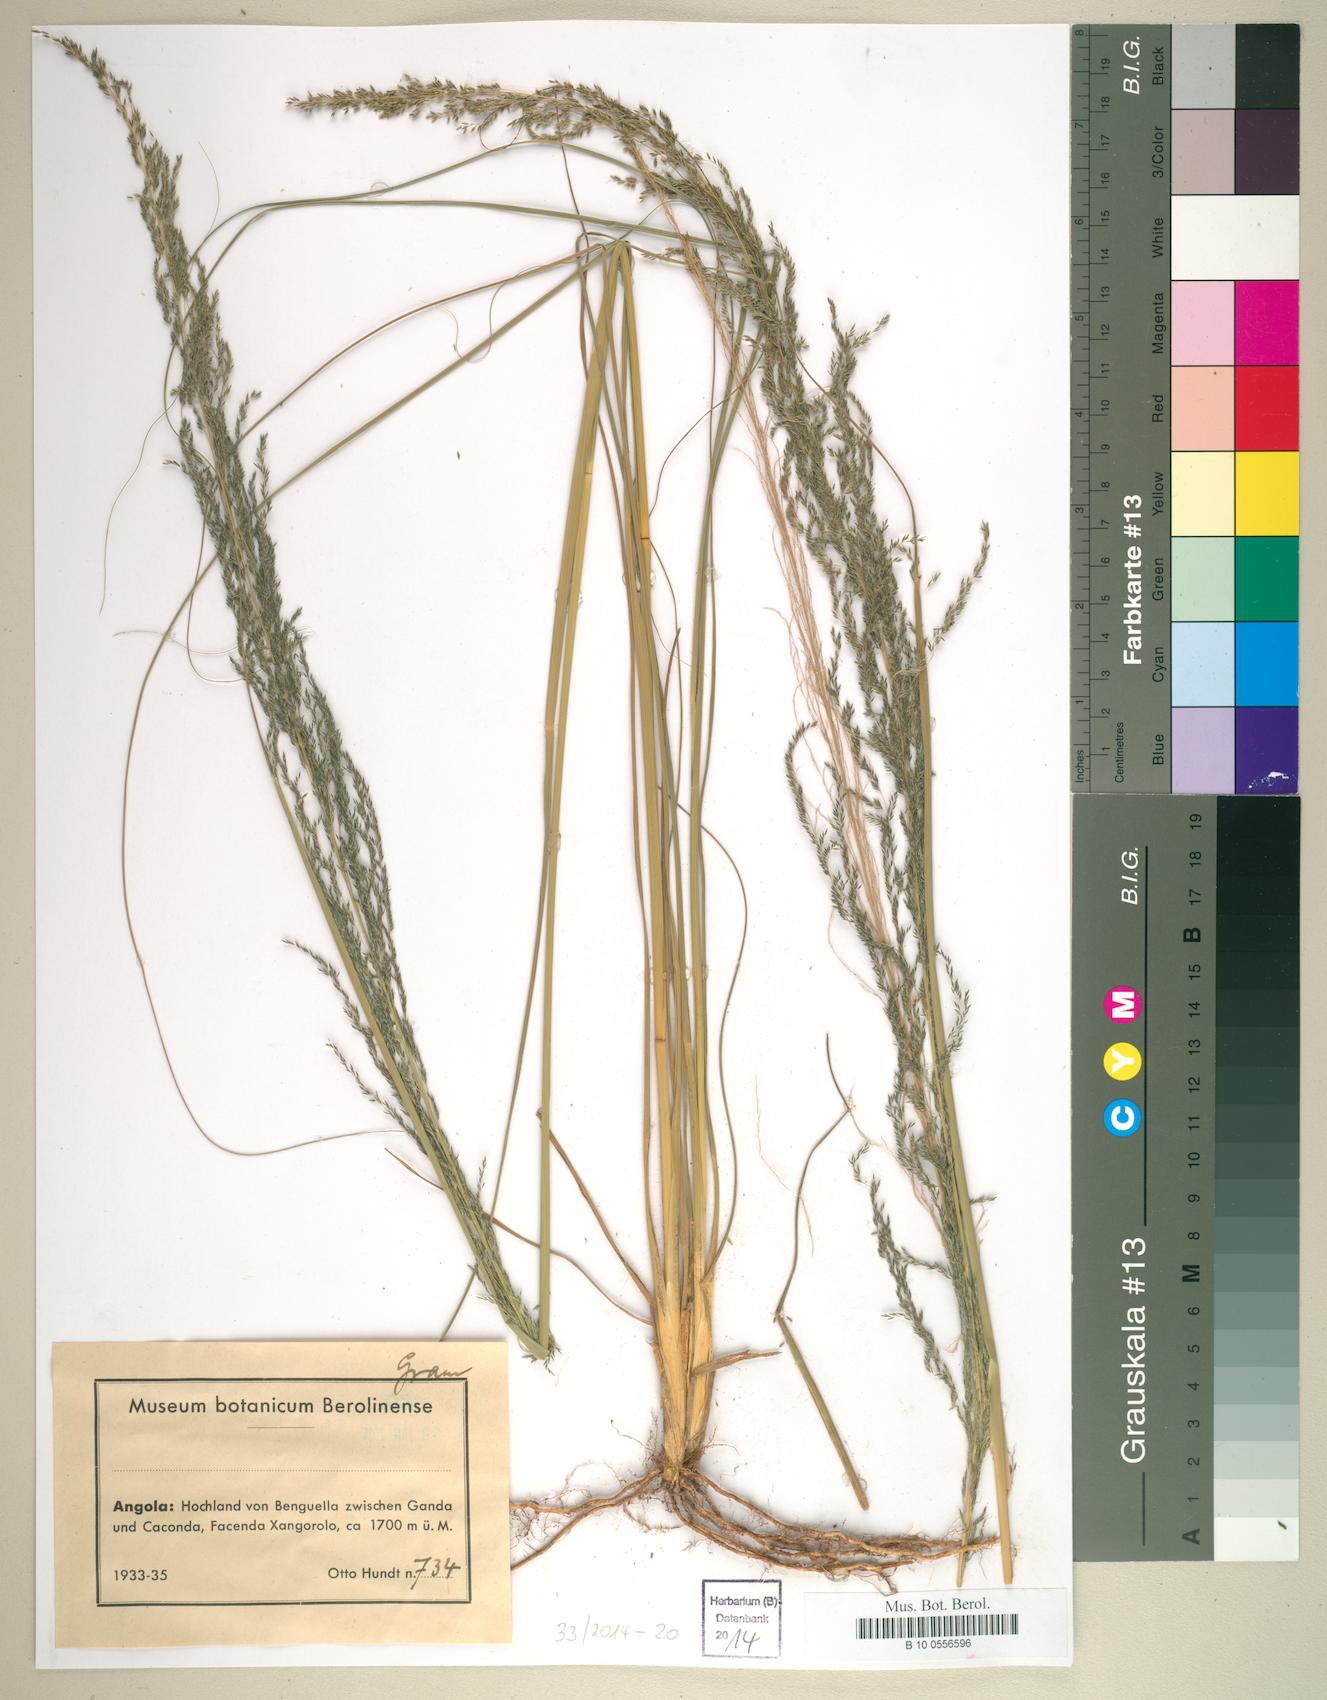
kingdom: Plantae
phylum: Tracheophyta
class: Liliopsida
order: Poales
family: Poaceae
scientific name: Poaceae
